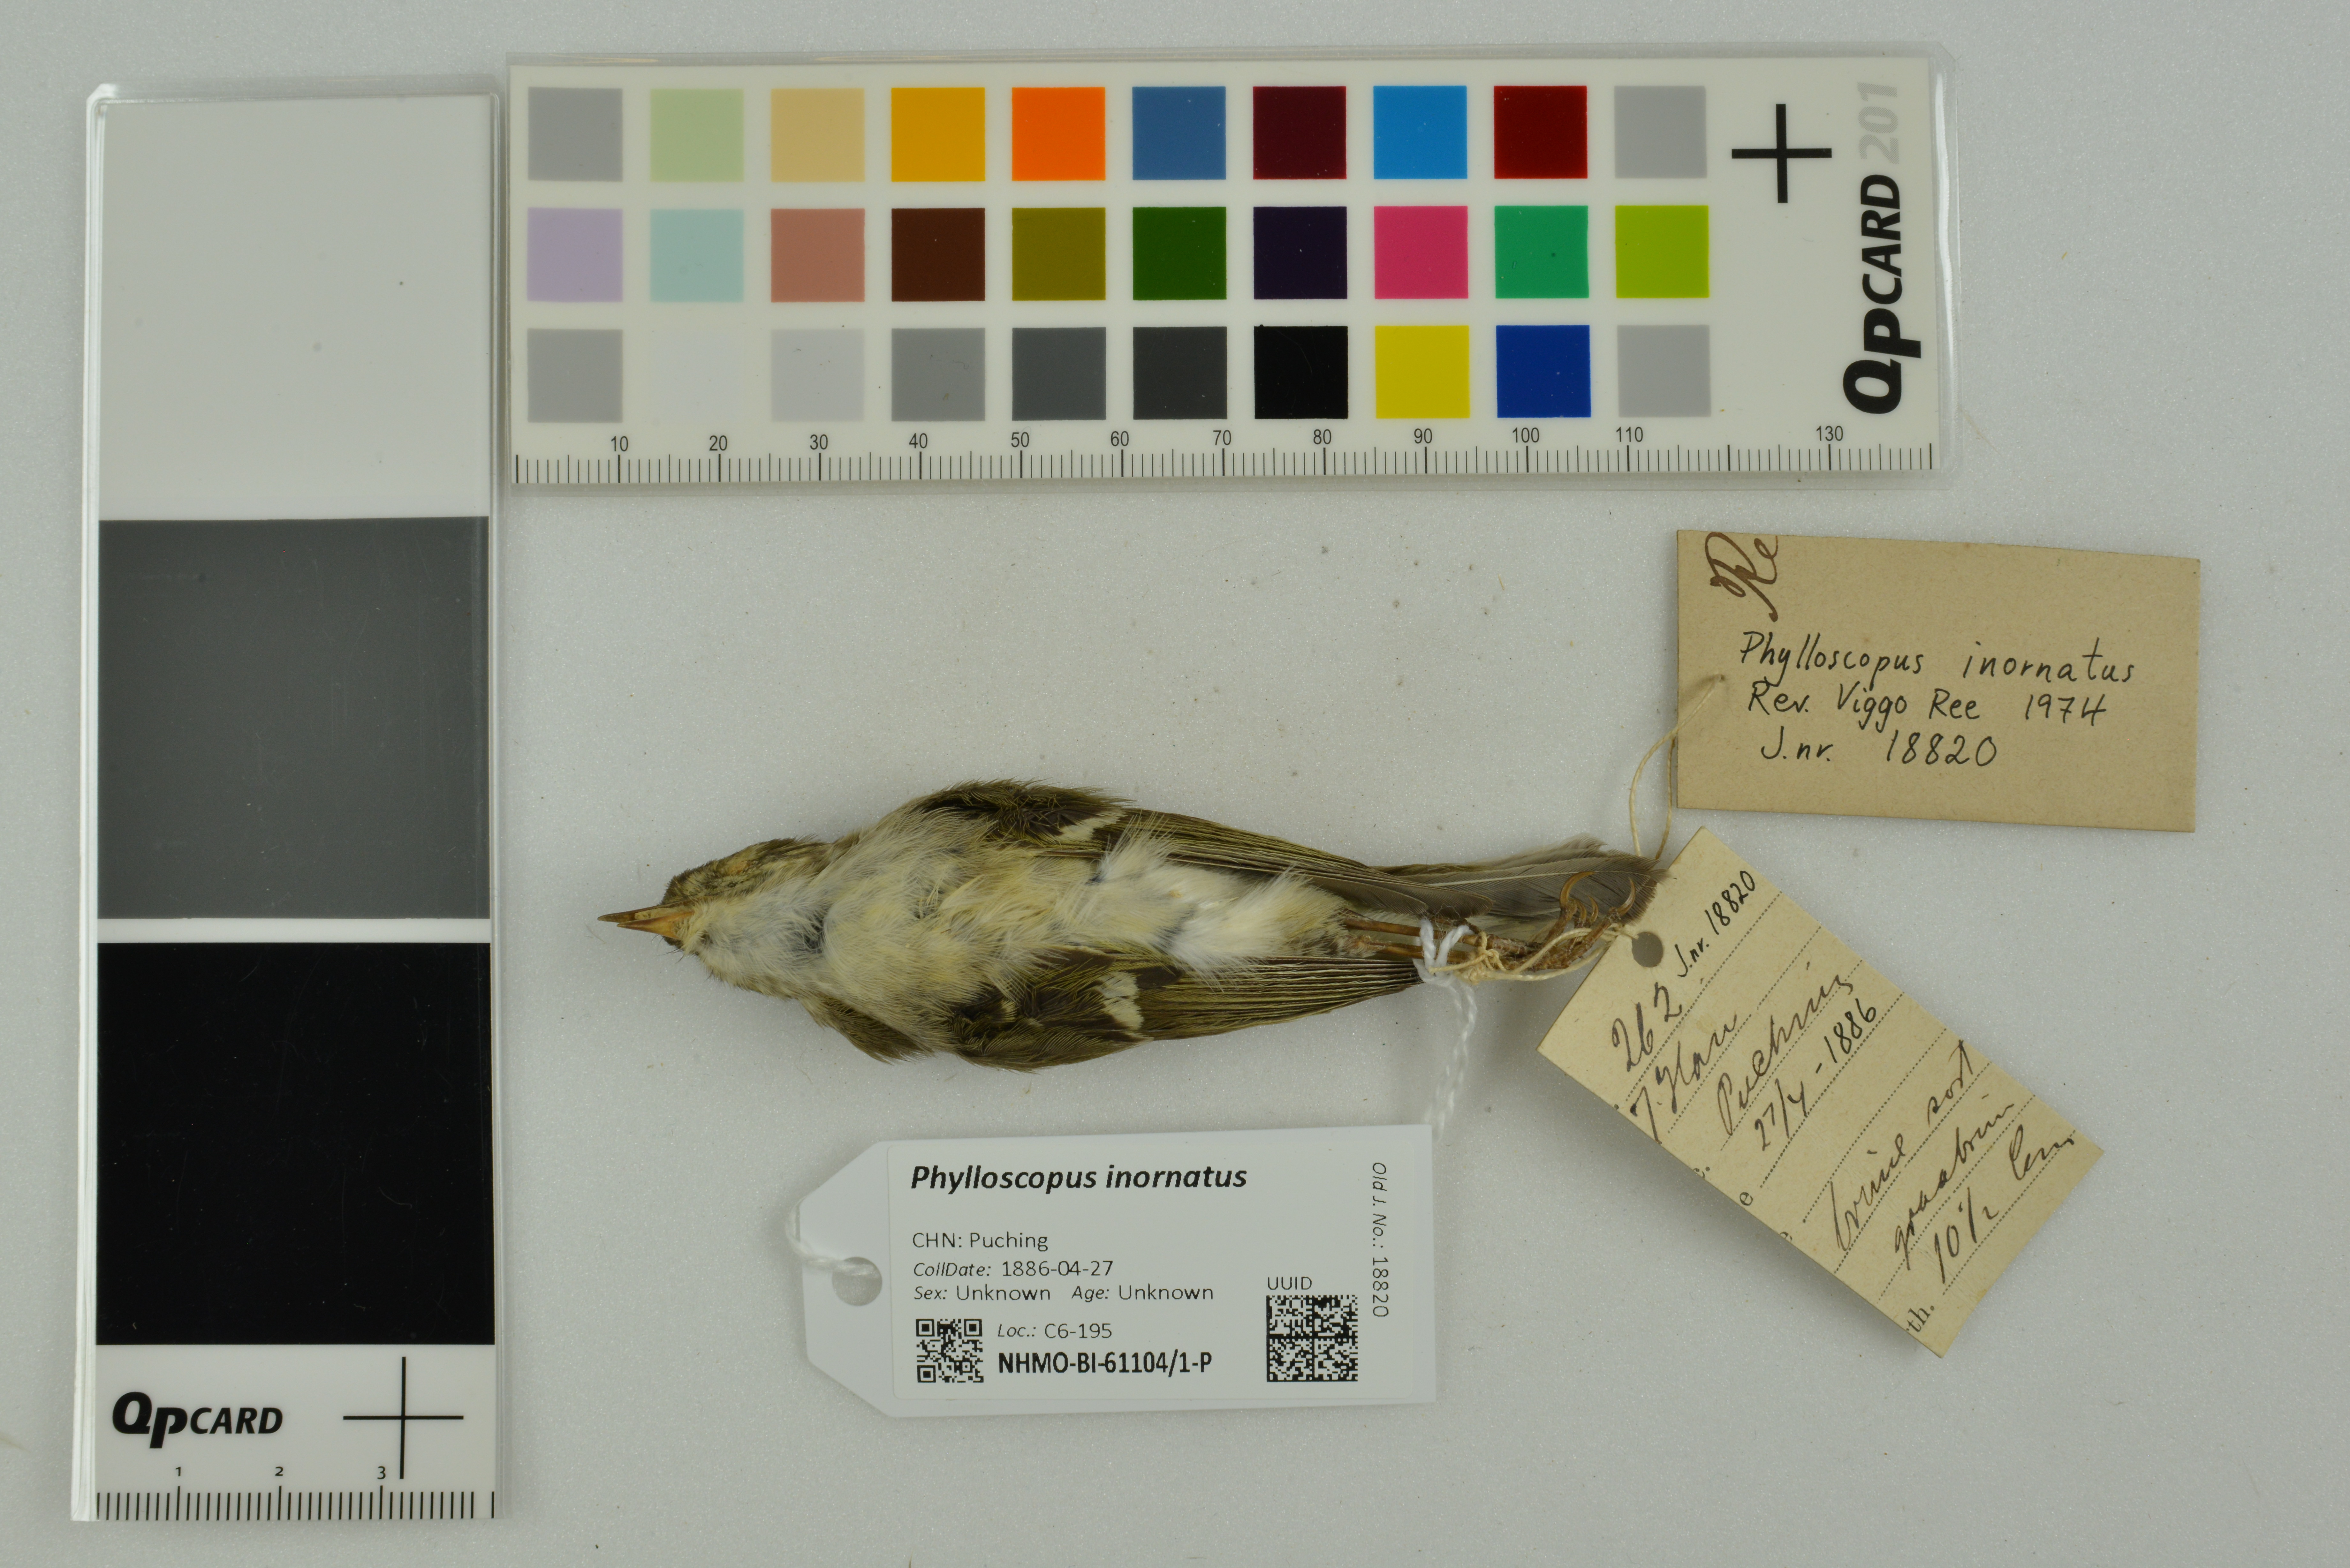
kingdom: Animalia
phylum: Chordata
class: Aves
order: Passeriformes
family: Phylloscopidae
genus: Phylloscopus
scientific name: Phylloscopus inornatus
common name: Yellow-browed warbler
